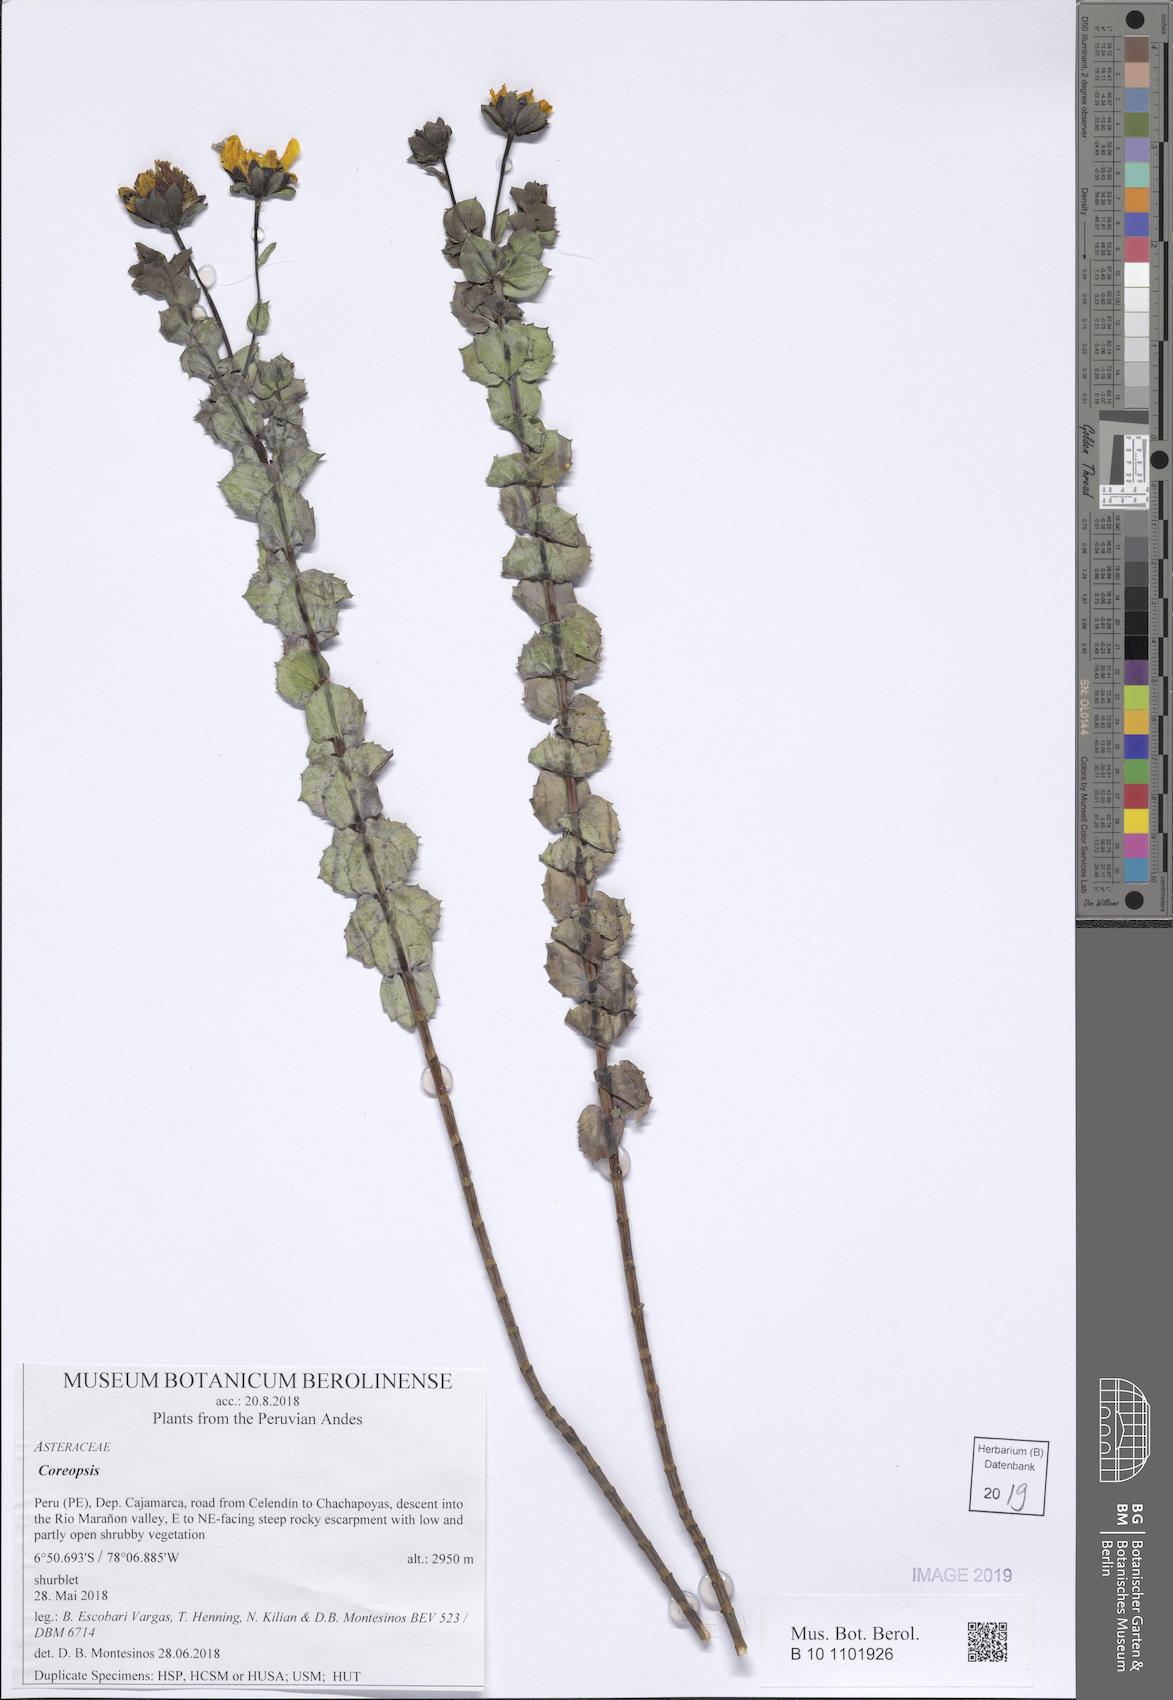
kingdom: Plantae
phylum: Tracheophyta
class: Magnoliopsida
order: Asterales
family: Asteraceae
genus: Coreopsis
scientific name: Coreopsis
